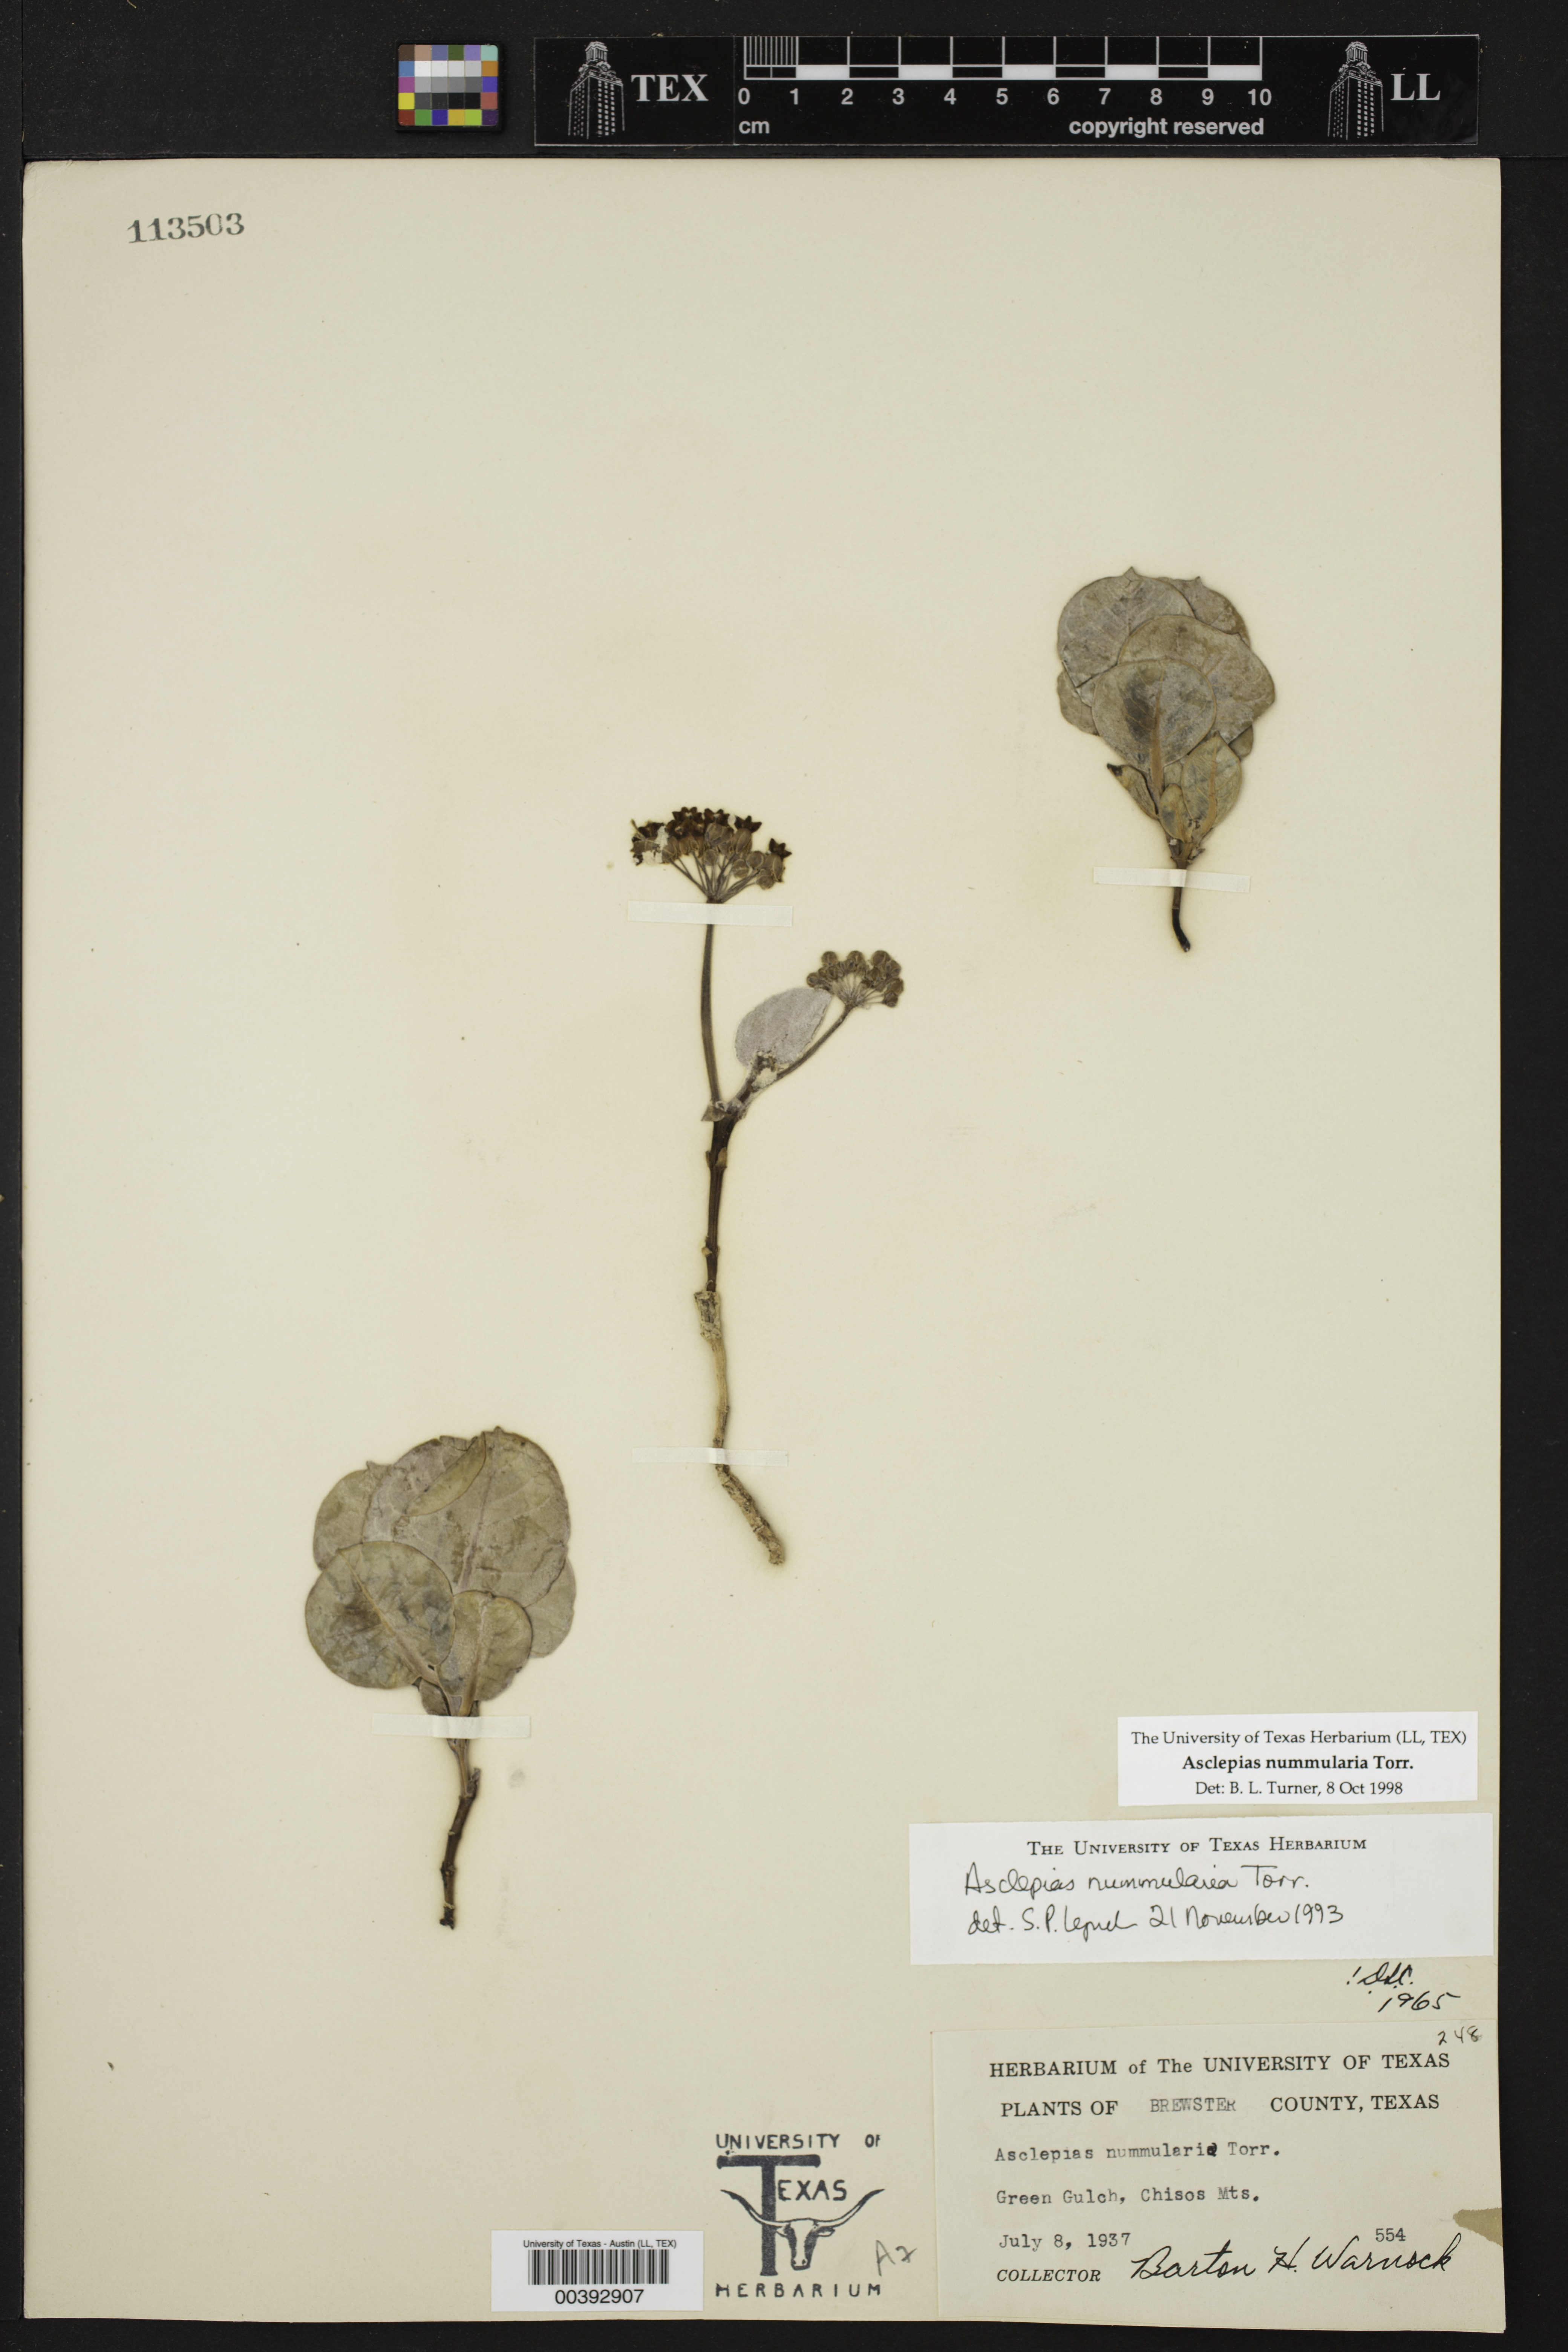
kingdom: Plantae
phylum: Tracheophyta
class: Magnoliopsida
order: Gentianales
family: Apocynaceae
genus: Asclepias
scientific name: Asclepias nummularia
